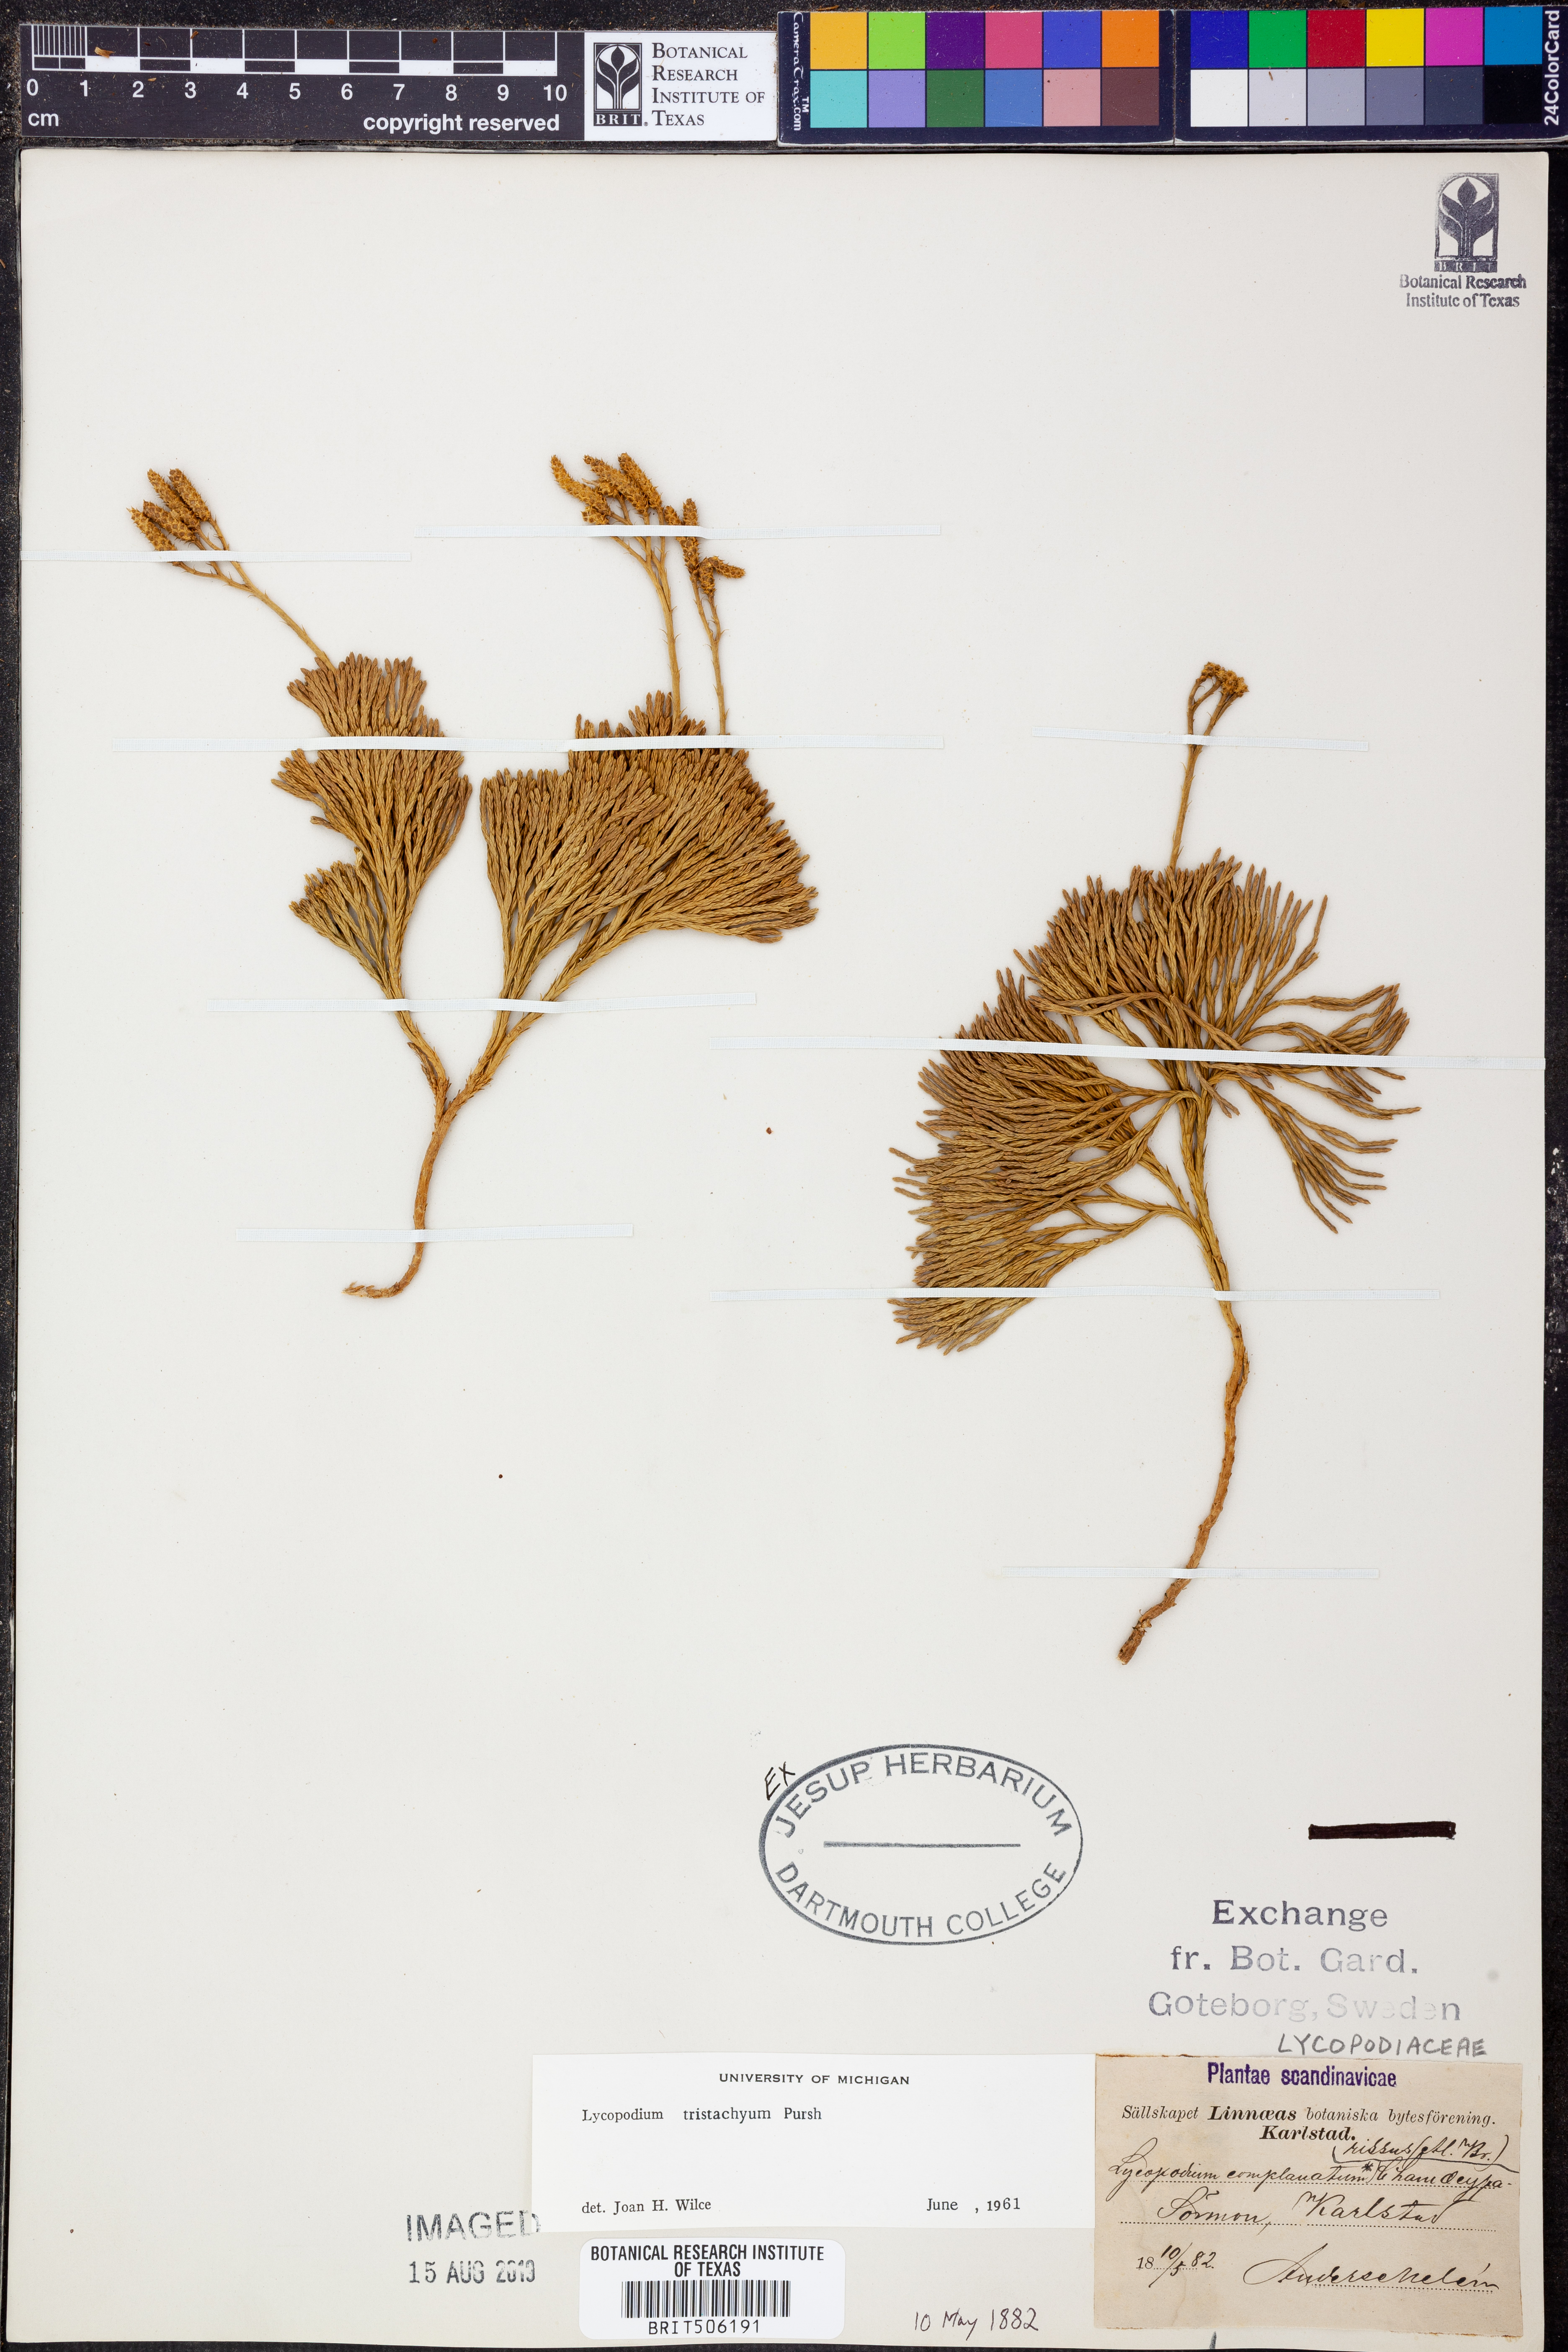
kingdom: Plantae
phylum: Tracheophyta
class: Lycopodiopsida
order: Lycopodiales
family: Lycopodiaceae
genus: Diphasiastrum
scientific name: Diphasiastrum tristachyum
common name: Blue ground-cedar
